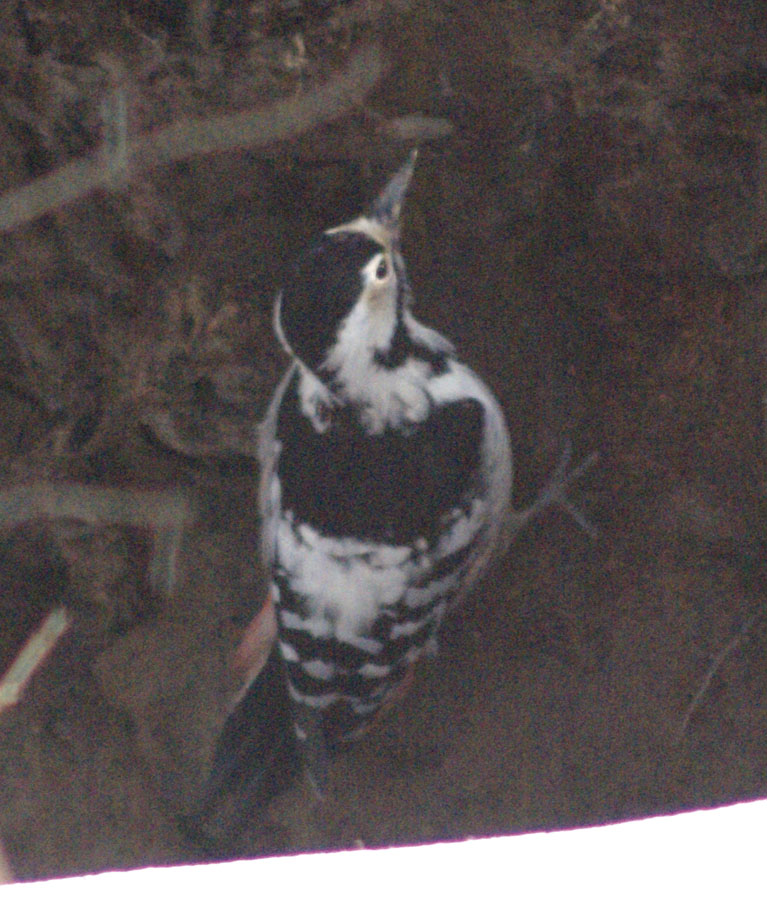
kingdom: Animalia
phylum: Chordata
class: Aves
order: Piciformes
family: Picidae
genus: Dendrocopos
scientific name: Dendrocopos leucotos
